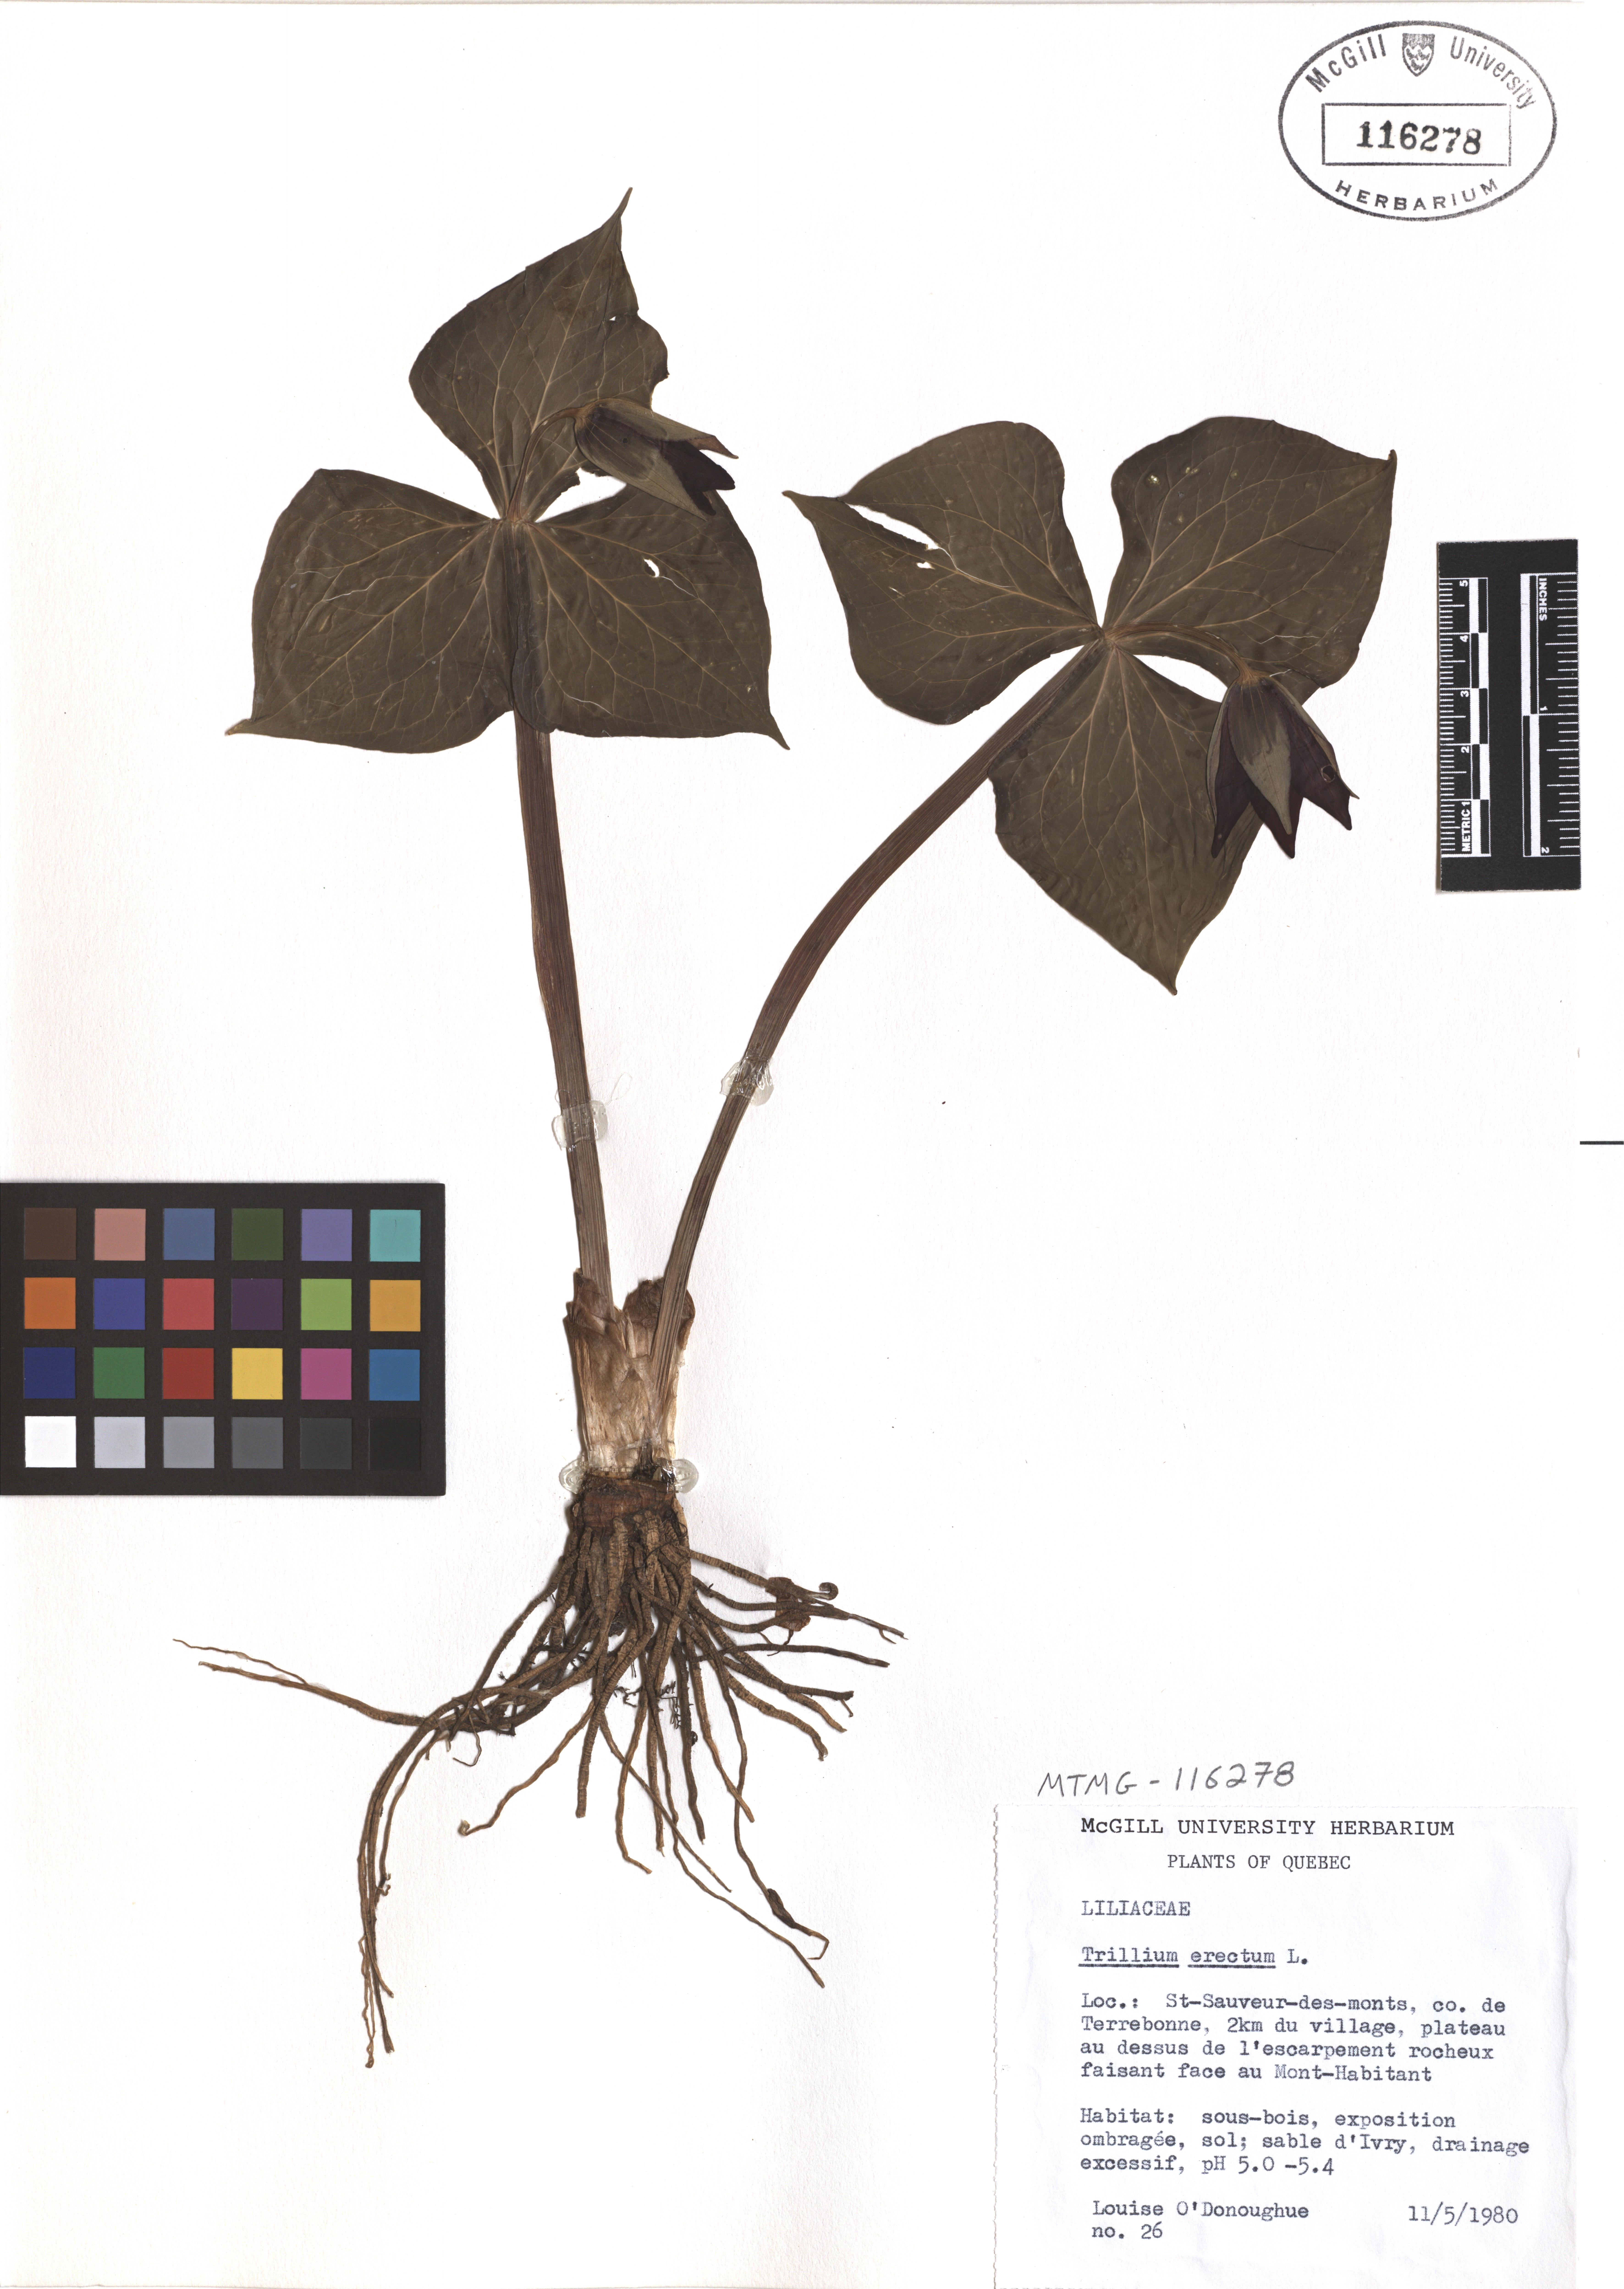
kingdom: Plantae
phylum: Tracheophyta
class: Liliopsida
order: Liliales
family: Melanthiaceae
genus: Trillium
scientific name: Trillium erectum
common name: Purple trillium
